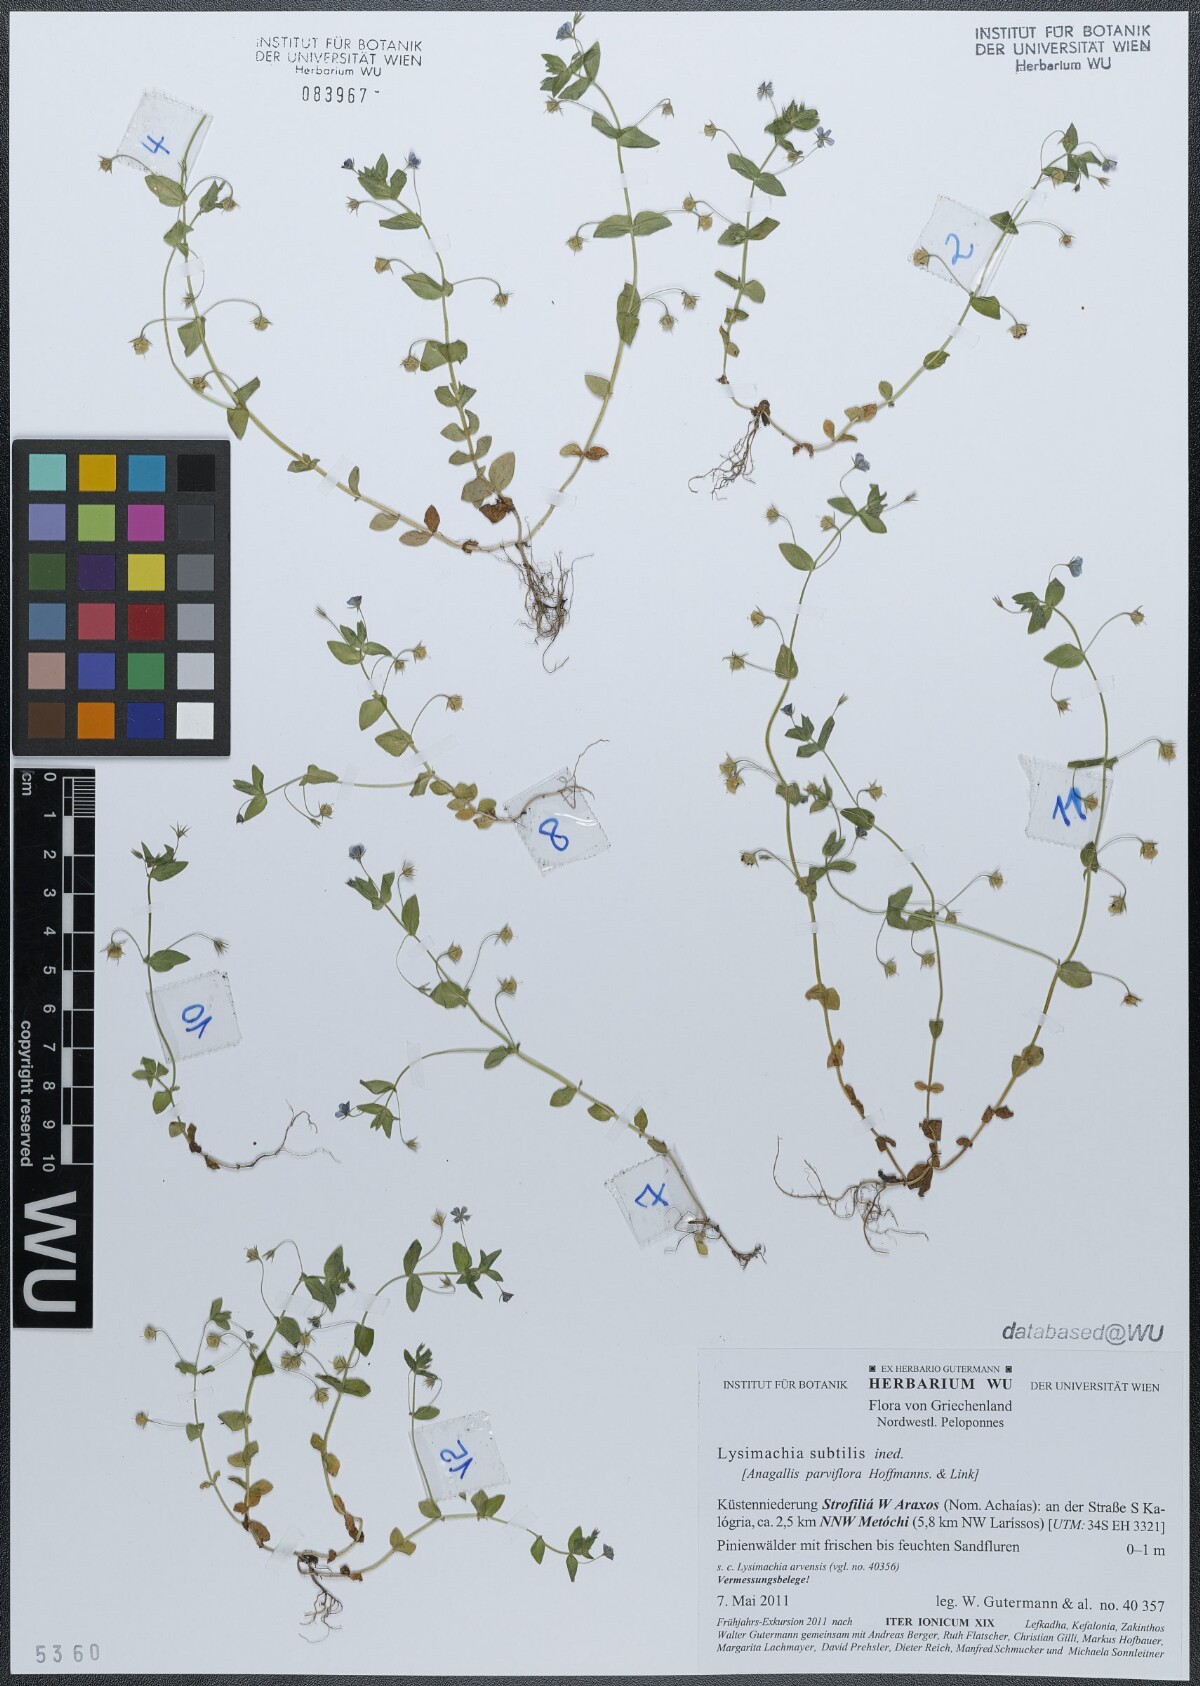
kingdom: Plantae
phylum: Tracheophyta
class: Magnoliopsida
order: Ericales
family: Primulaceae
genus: Lysimachia
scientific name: Lysimachia talaverae
